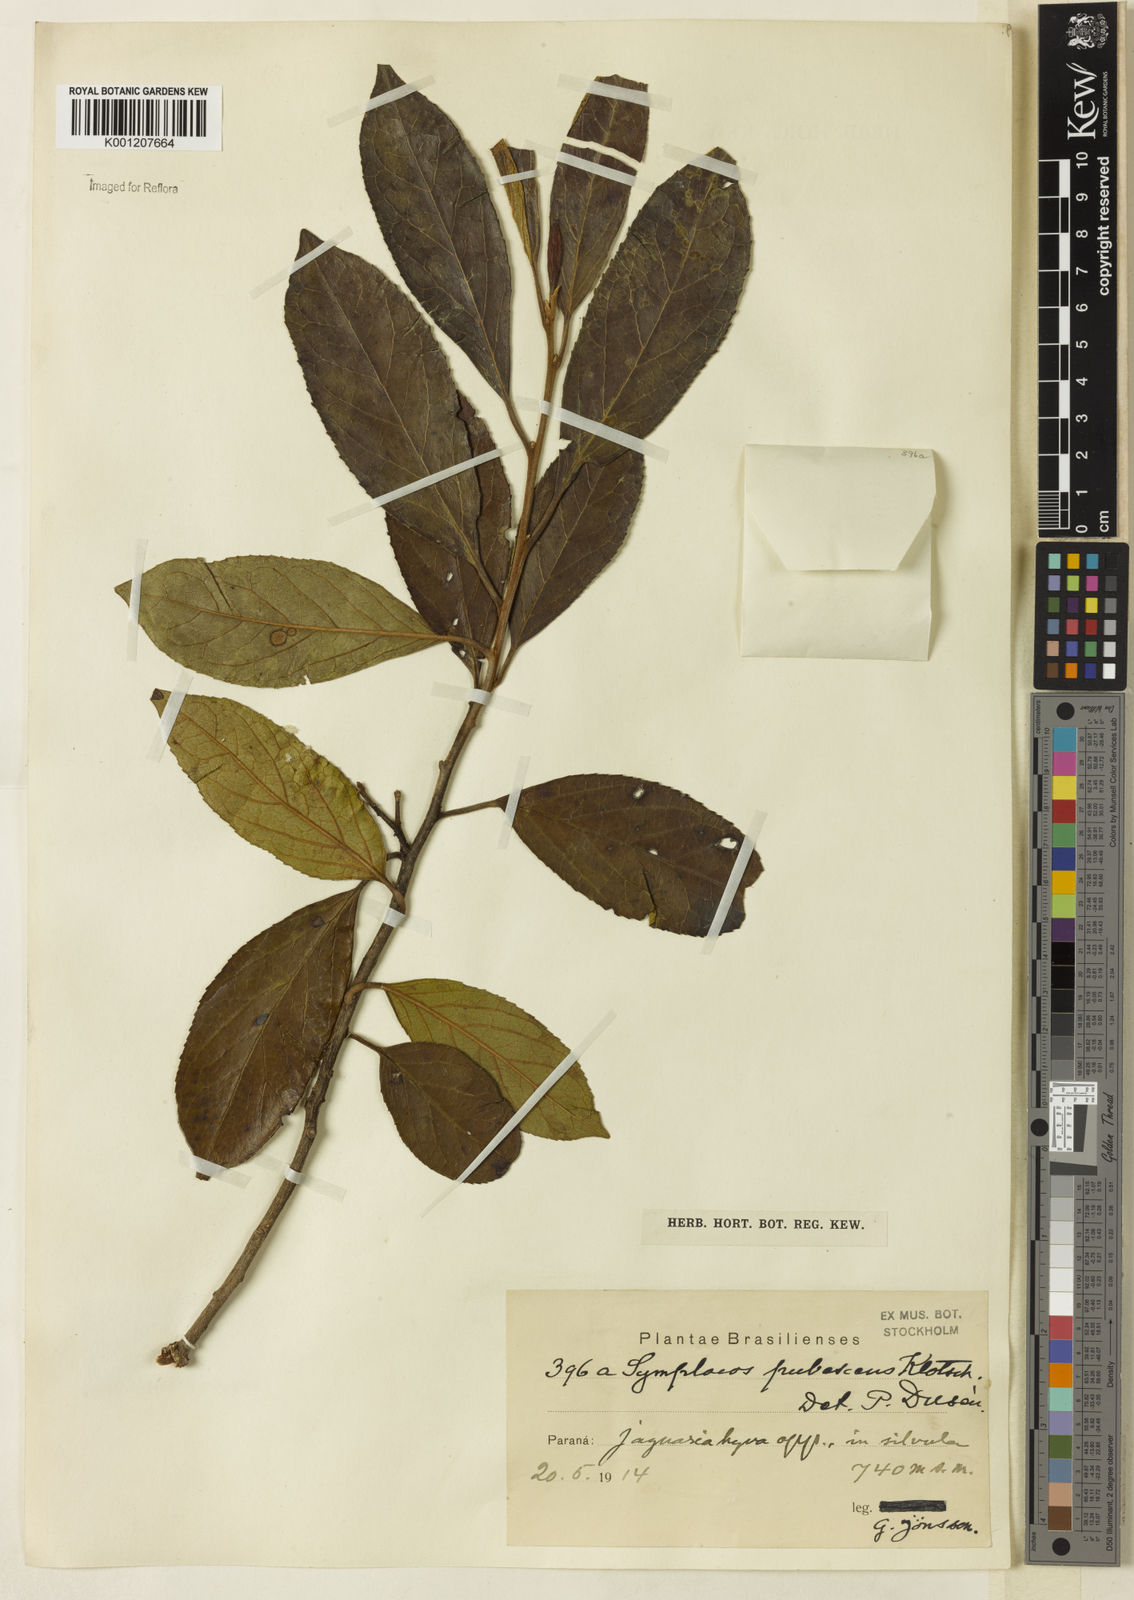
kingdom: Plantae
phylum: Tracheophyta
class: Magnoliopsida
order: Ericales
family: Symplocaceae
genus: Symplocos
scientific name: Symplocos pubescens
